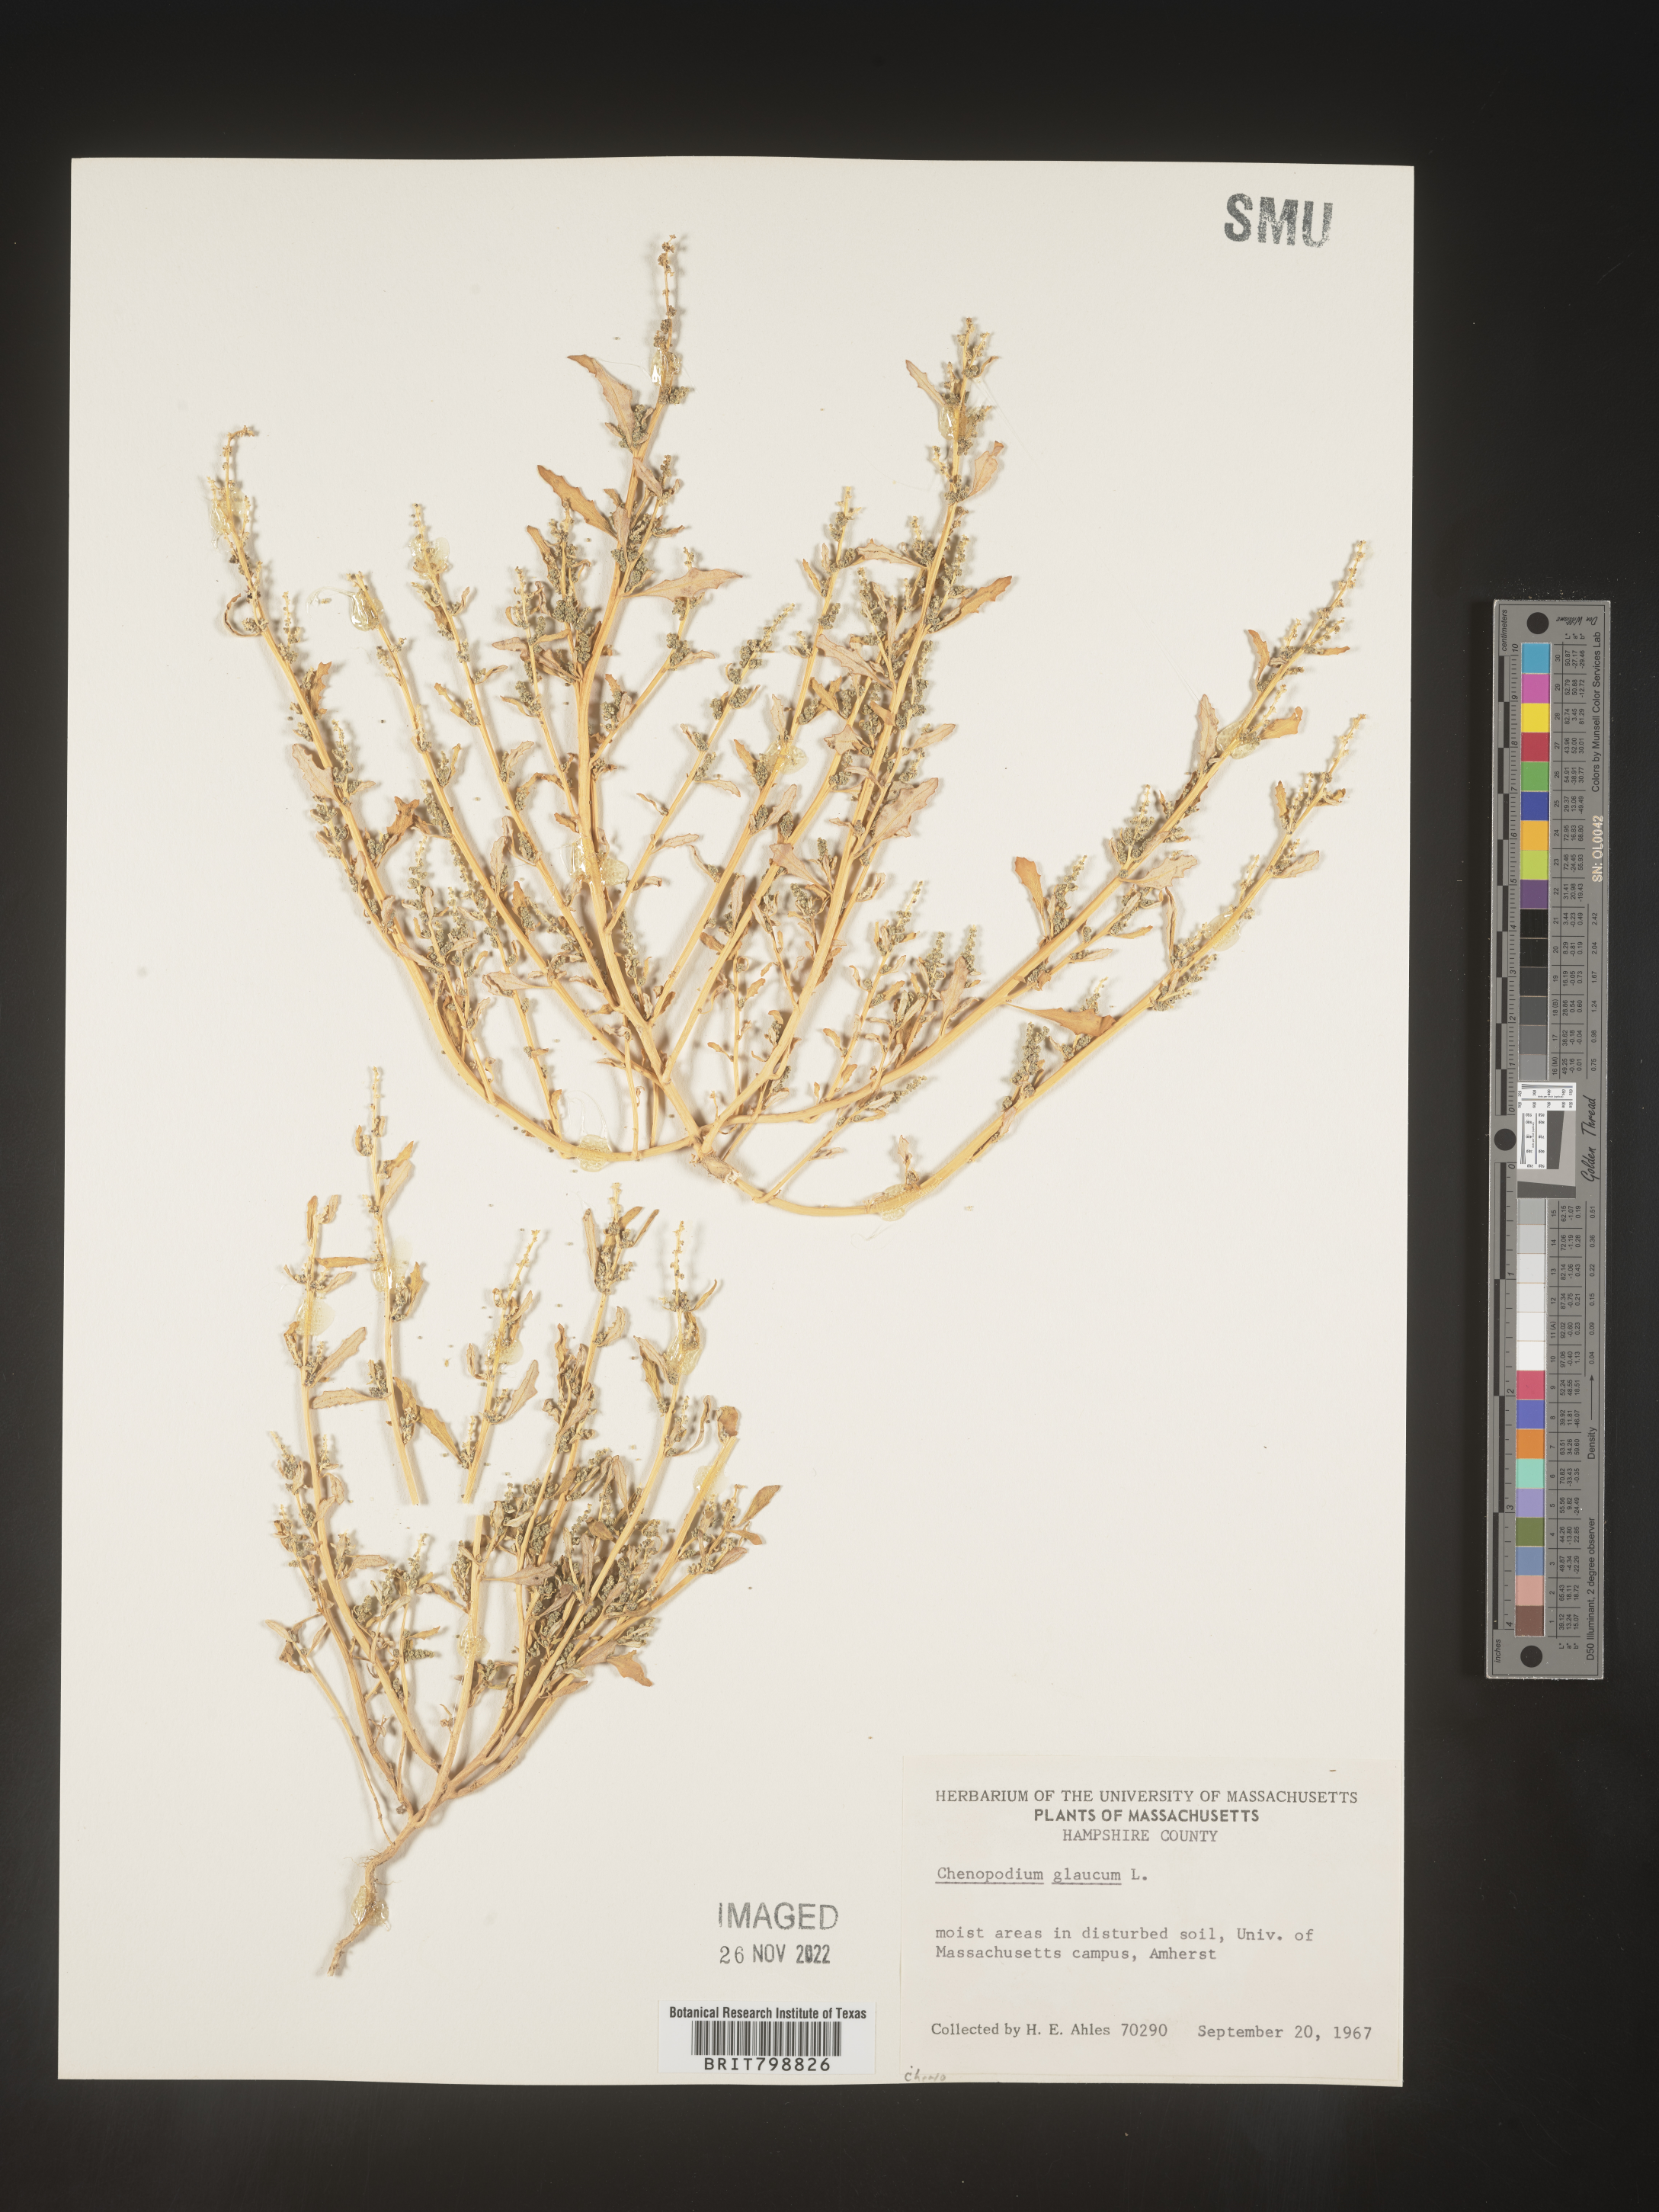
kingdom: Plantae
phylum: Tracheophyta
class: Magnoliopsida
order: Caryophyllales
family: Amaranthaceae
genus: Oxybasis
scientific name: Oxybasis glauca
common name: Glaucous goosefoot
